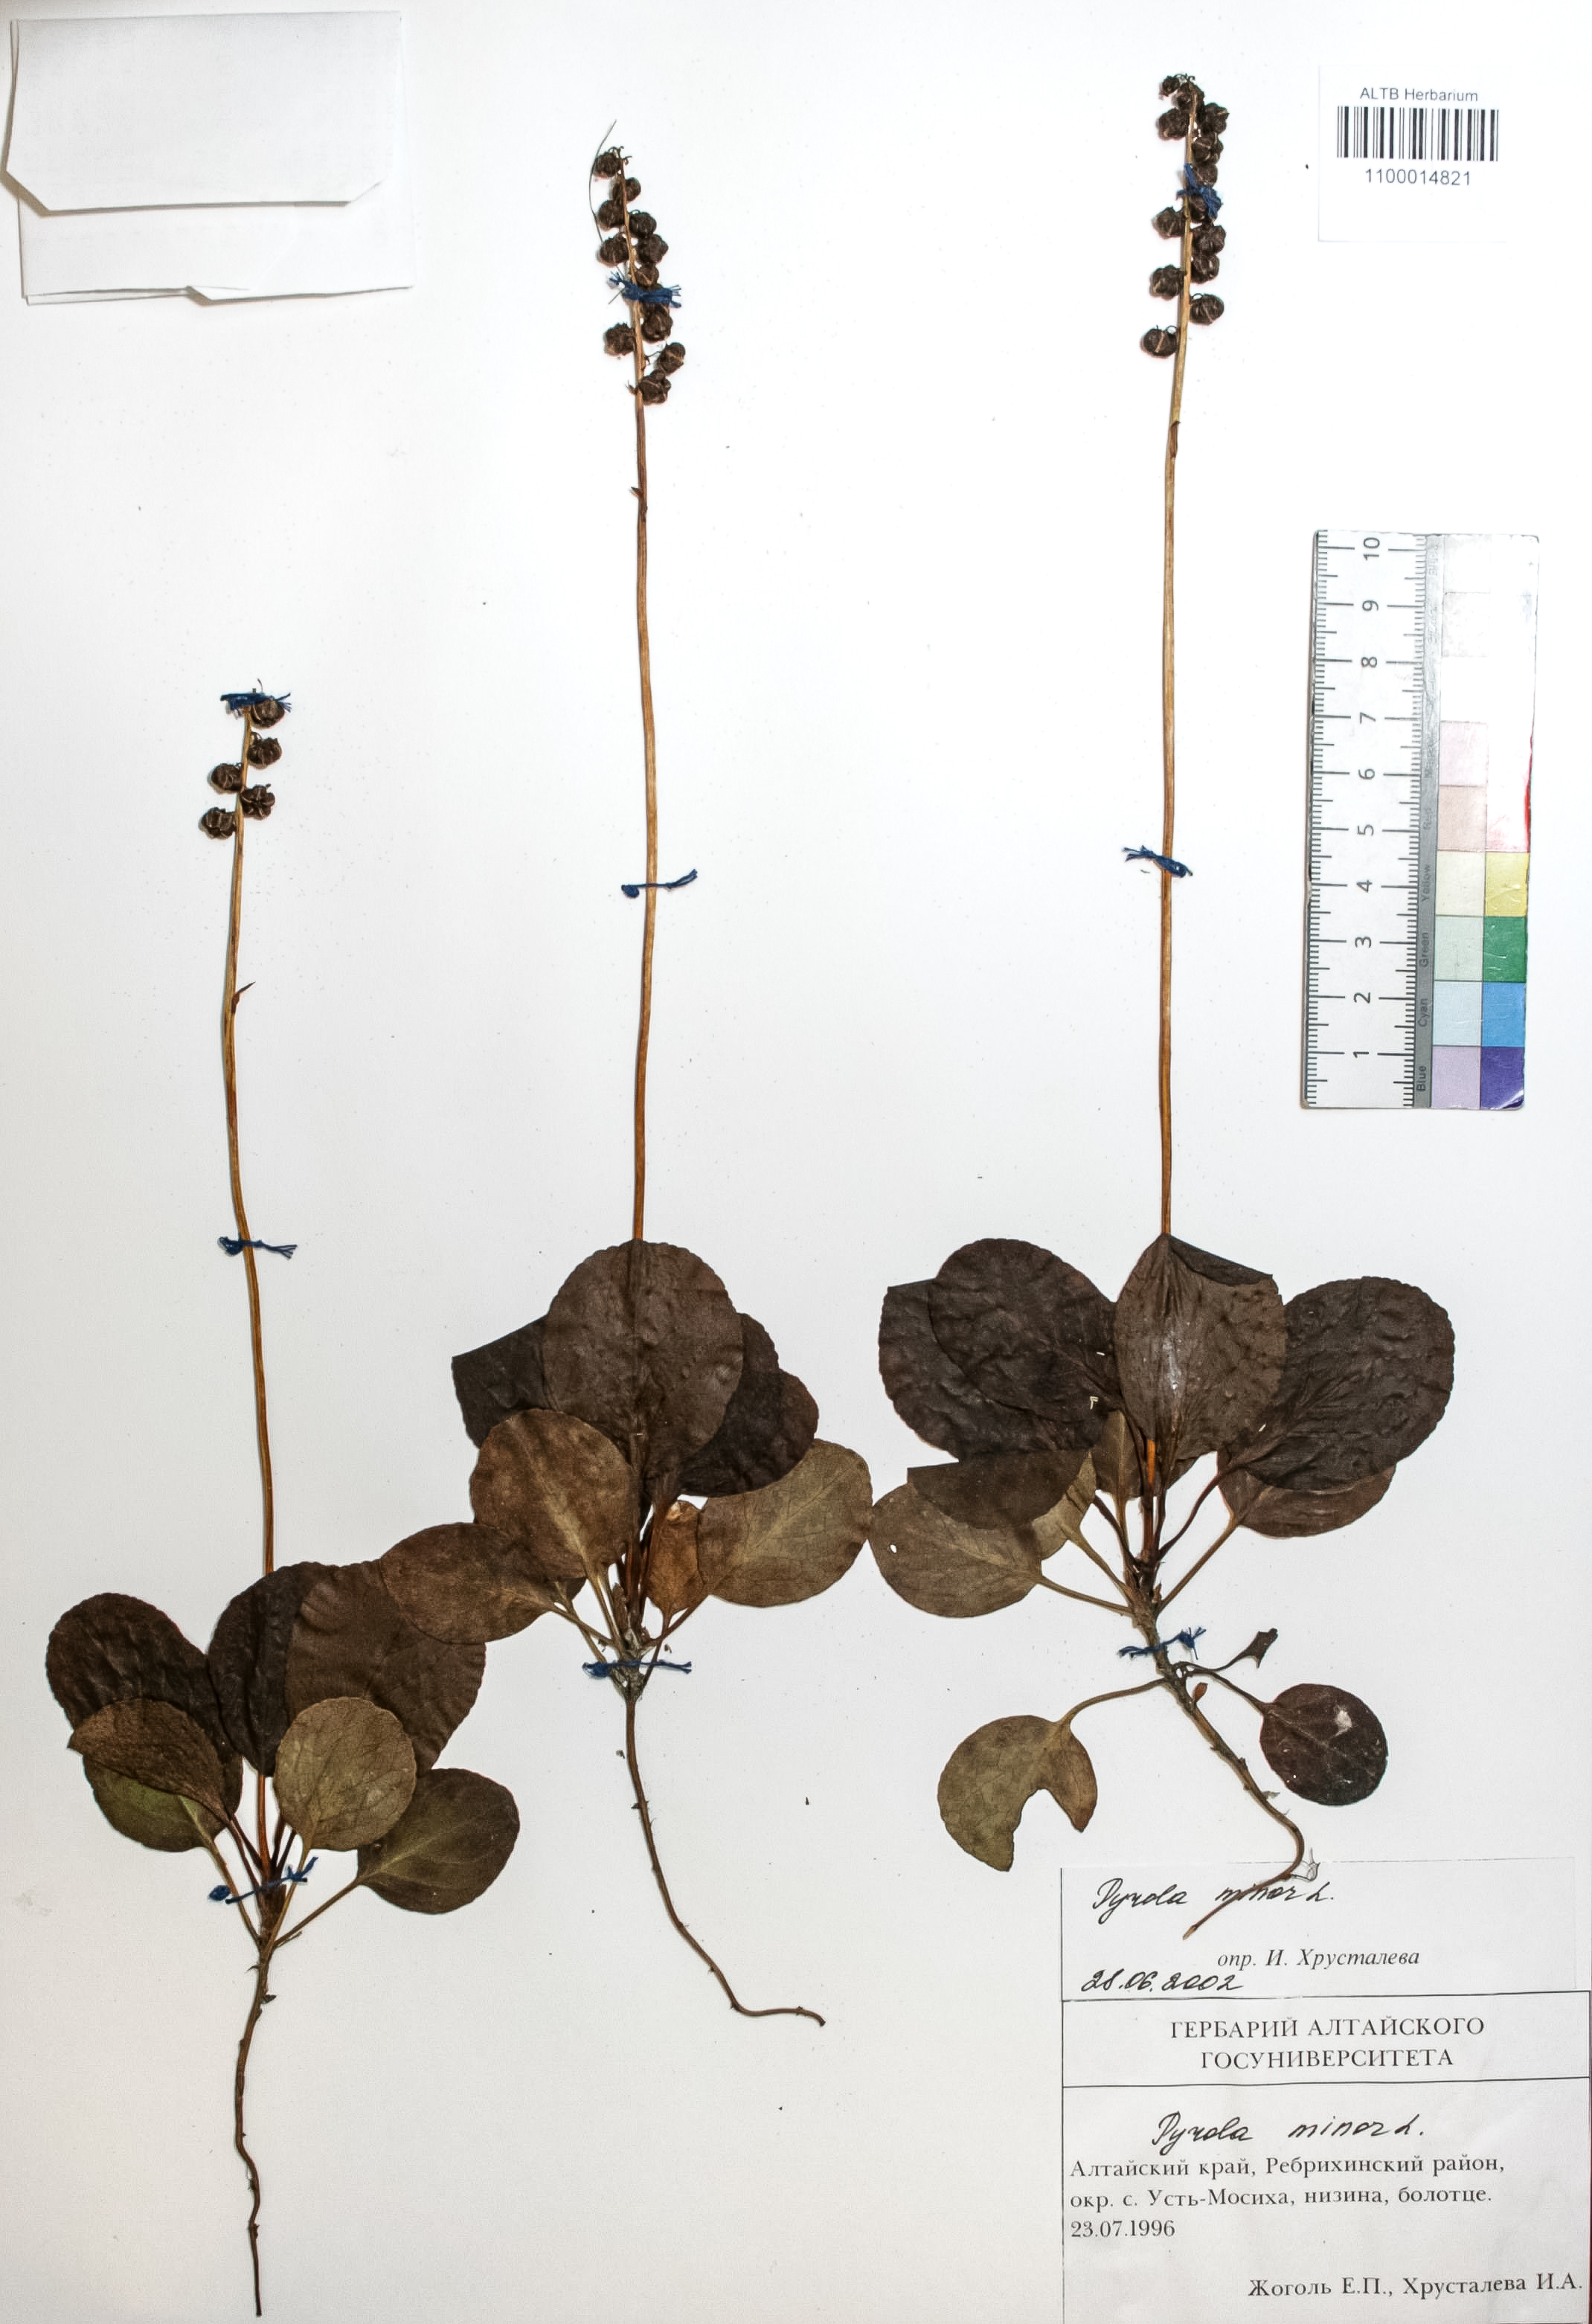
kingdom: Plantae
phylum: Tracheophyta
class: Magnoliopsida
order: Ericales
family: Ericaceae
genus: Pyrola
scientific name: Pyrola minor
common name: Common wintergreen
